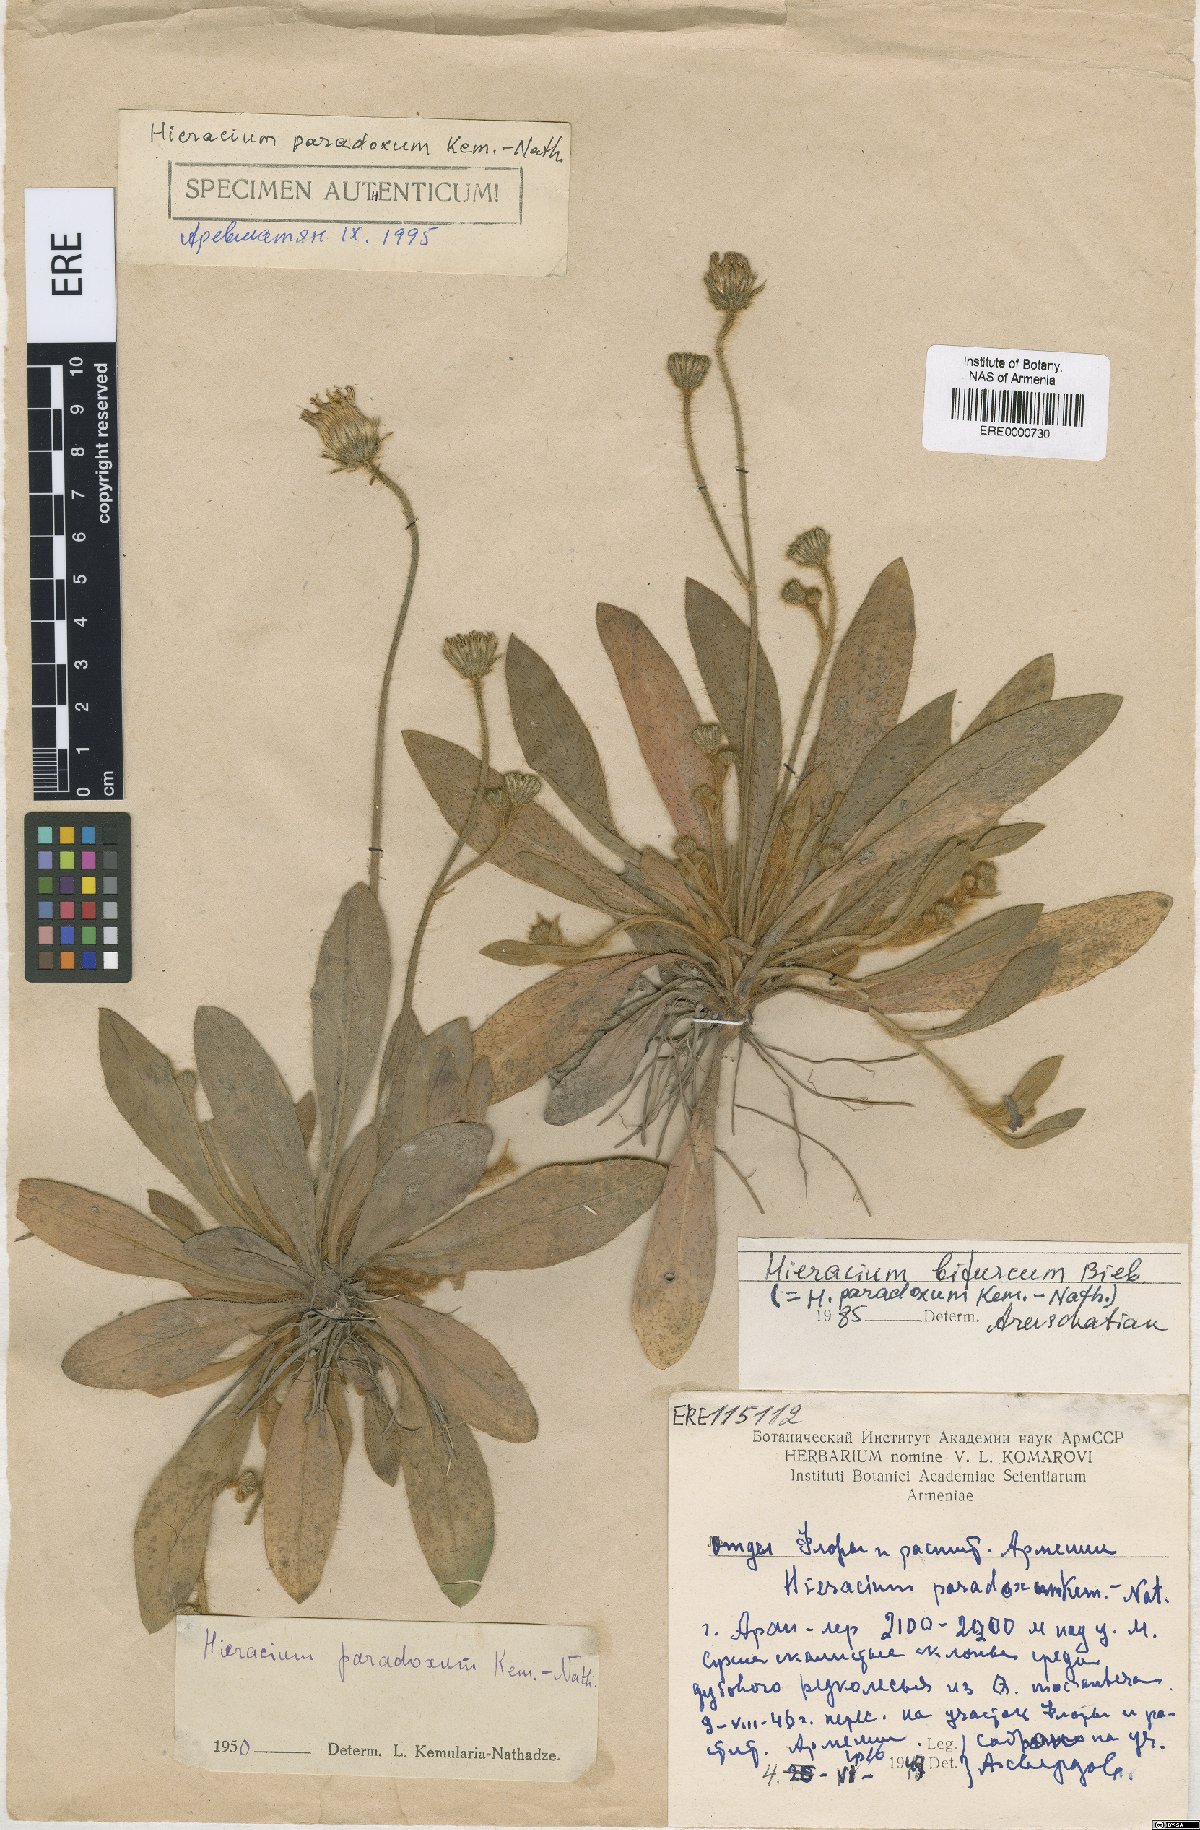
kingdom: Plantae
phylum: Tracheophyta
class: Magnoliopsida
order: Asterales
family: Asteraceae
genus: Pilosella
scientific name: Pilosella officinarum
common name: Mouse-ear hawkweed
